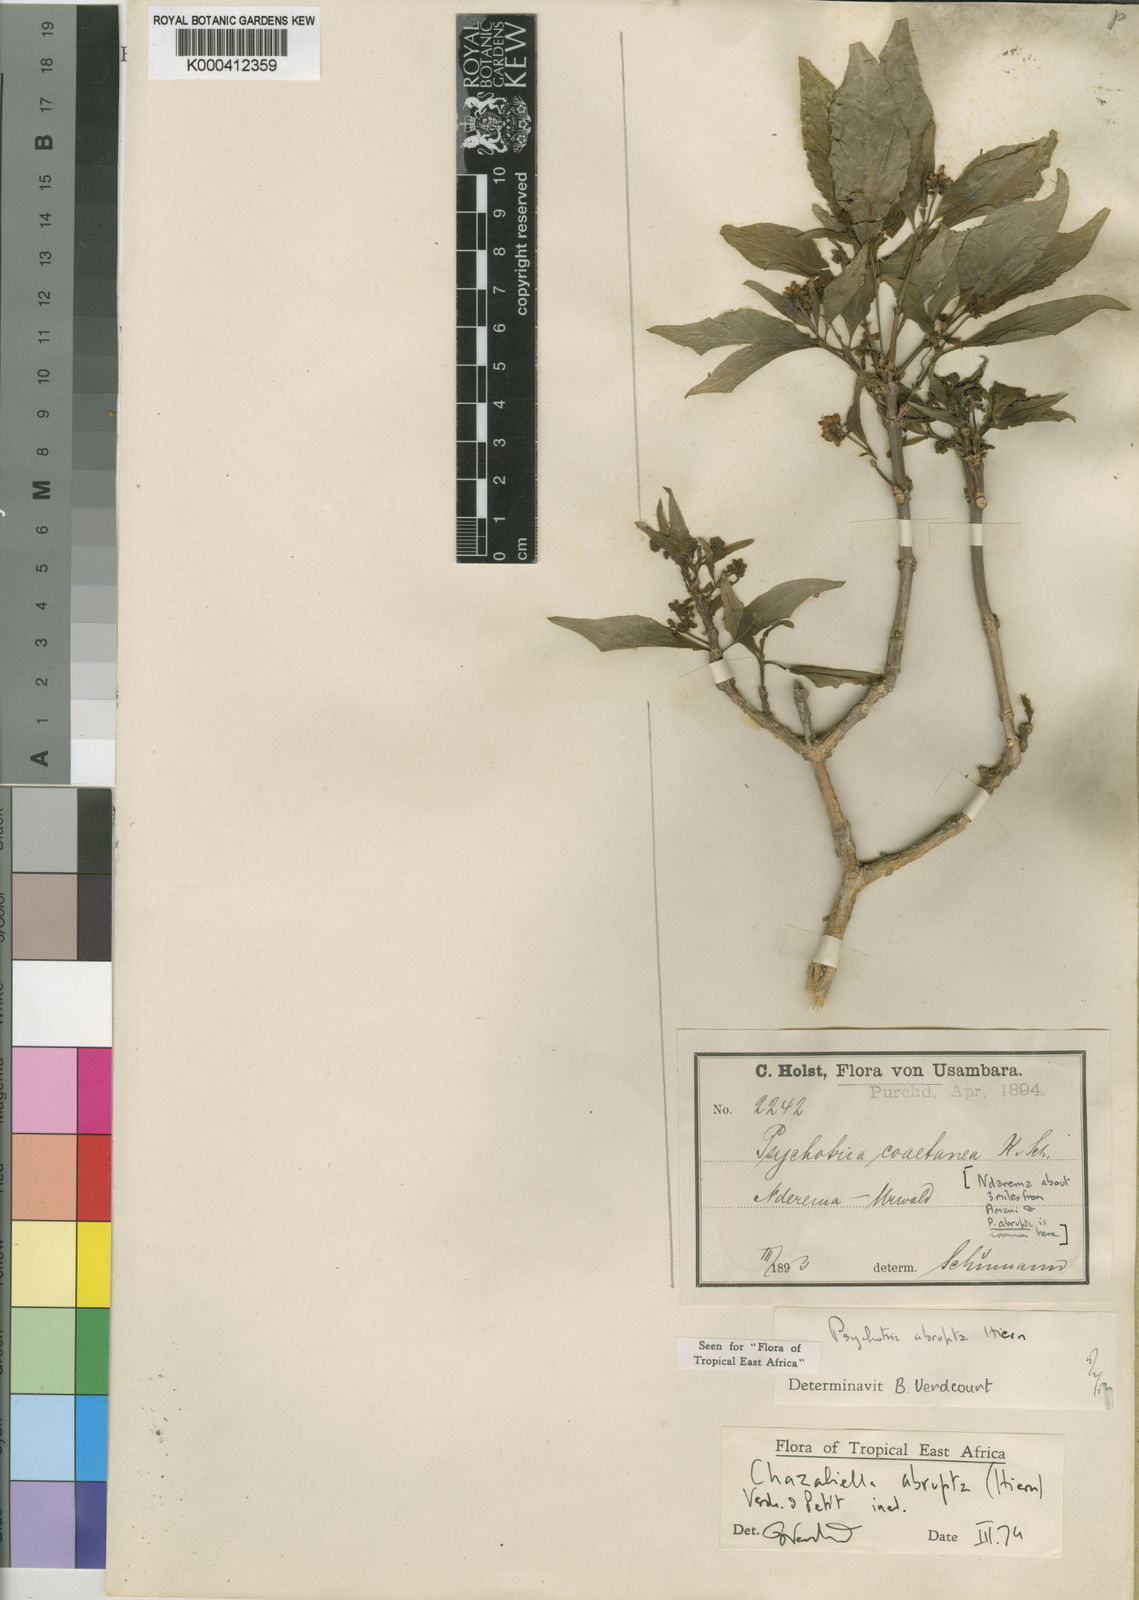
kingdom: Plantae
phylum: Tracheophyta
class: Magnoliopsida
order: Gentianales
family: Rubiaceae
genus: Eumachia
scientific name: Eumachia abrupta
